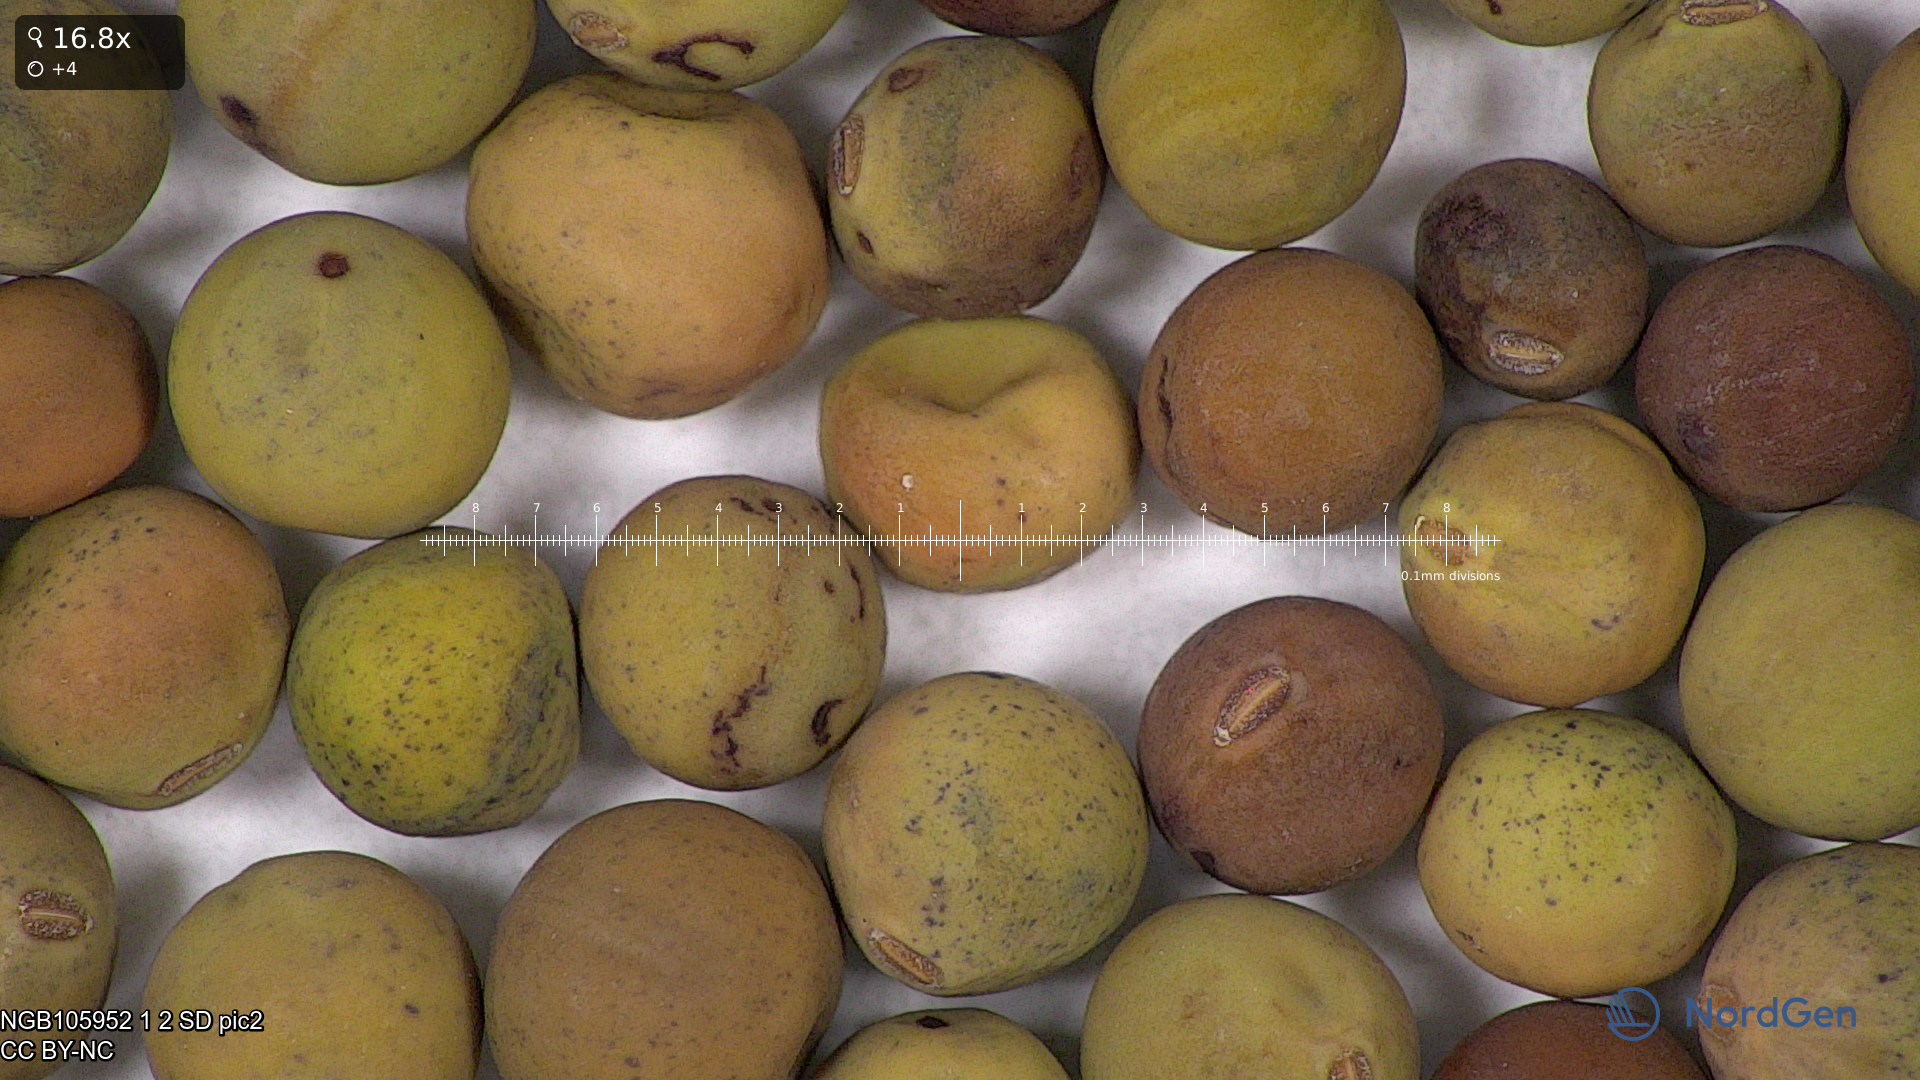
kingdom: Plantae
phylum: Tracheophyta
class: Magnoliopsida
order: Fabales
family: Fabaceae
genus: Lathyrus
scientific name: Lathyrus oleraceus
